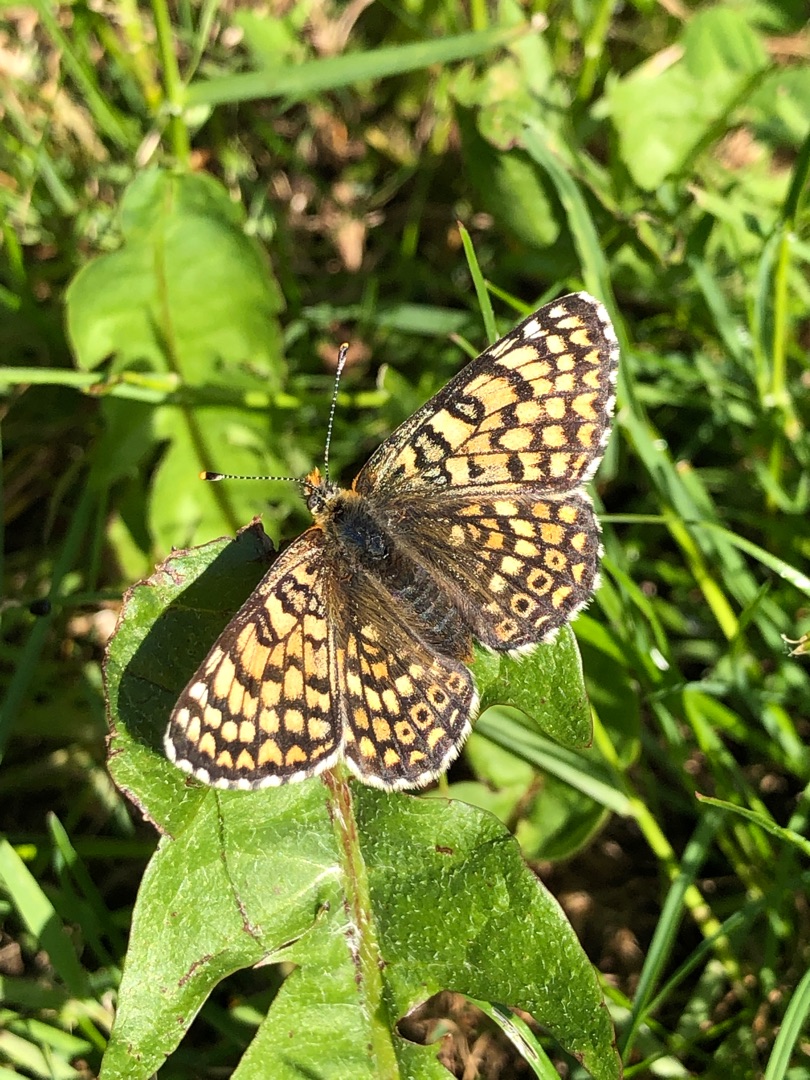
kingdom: Animalia
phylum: Arthropoda
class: Insecta
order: Lepidoptera
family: Nymphalidae
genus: Melitaea
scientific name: Melitaea cinxia
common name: Okkergul pletvinge
